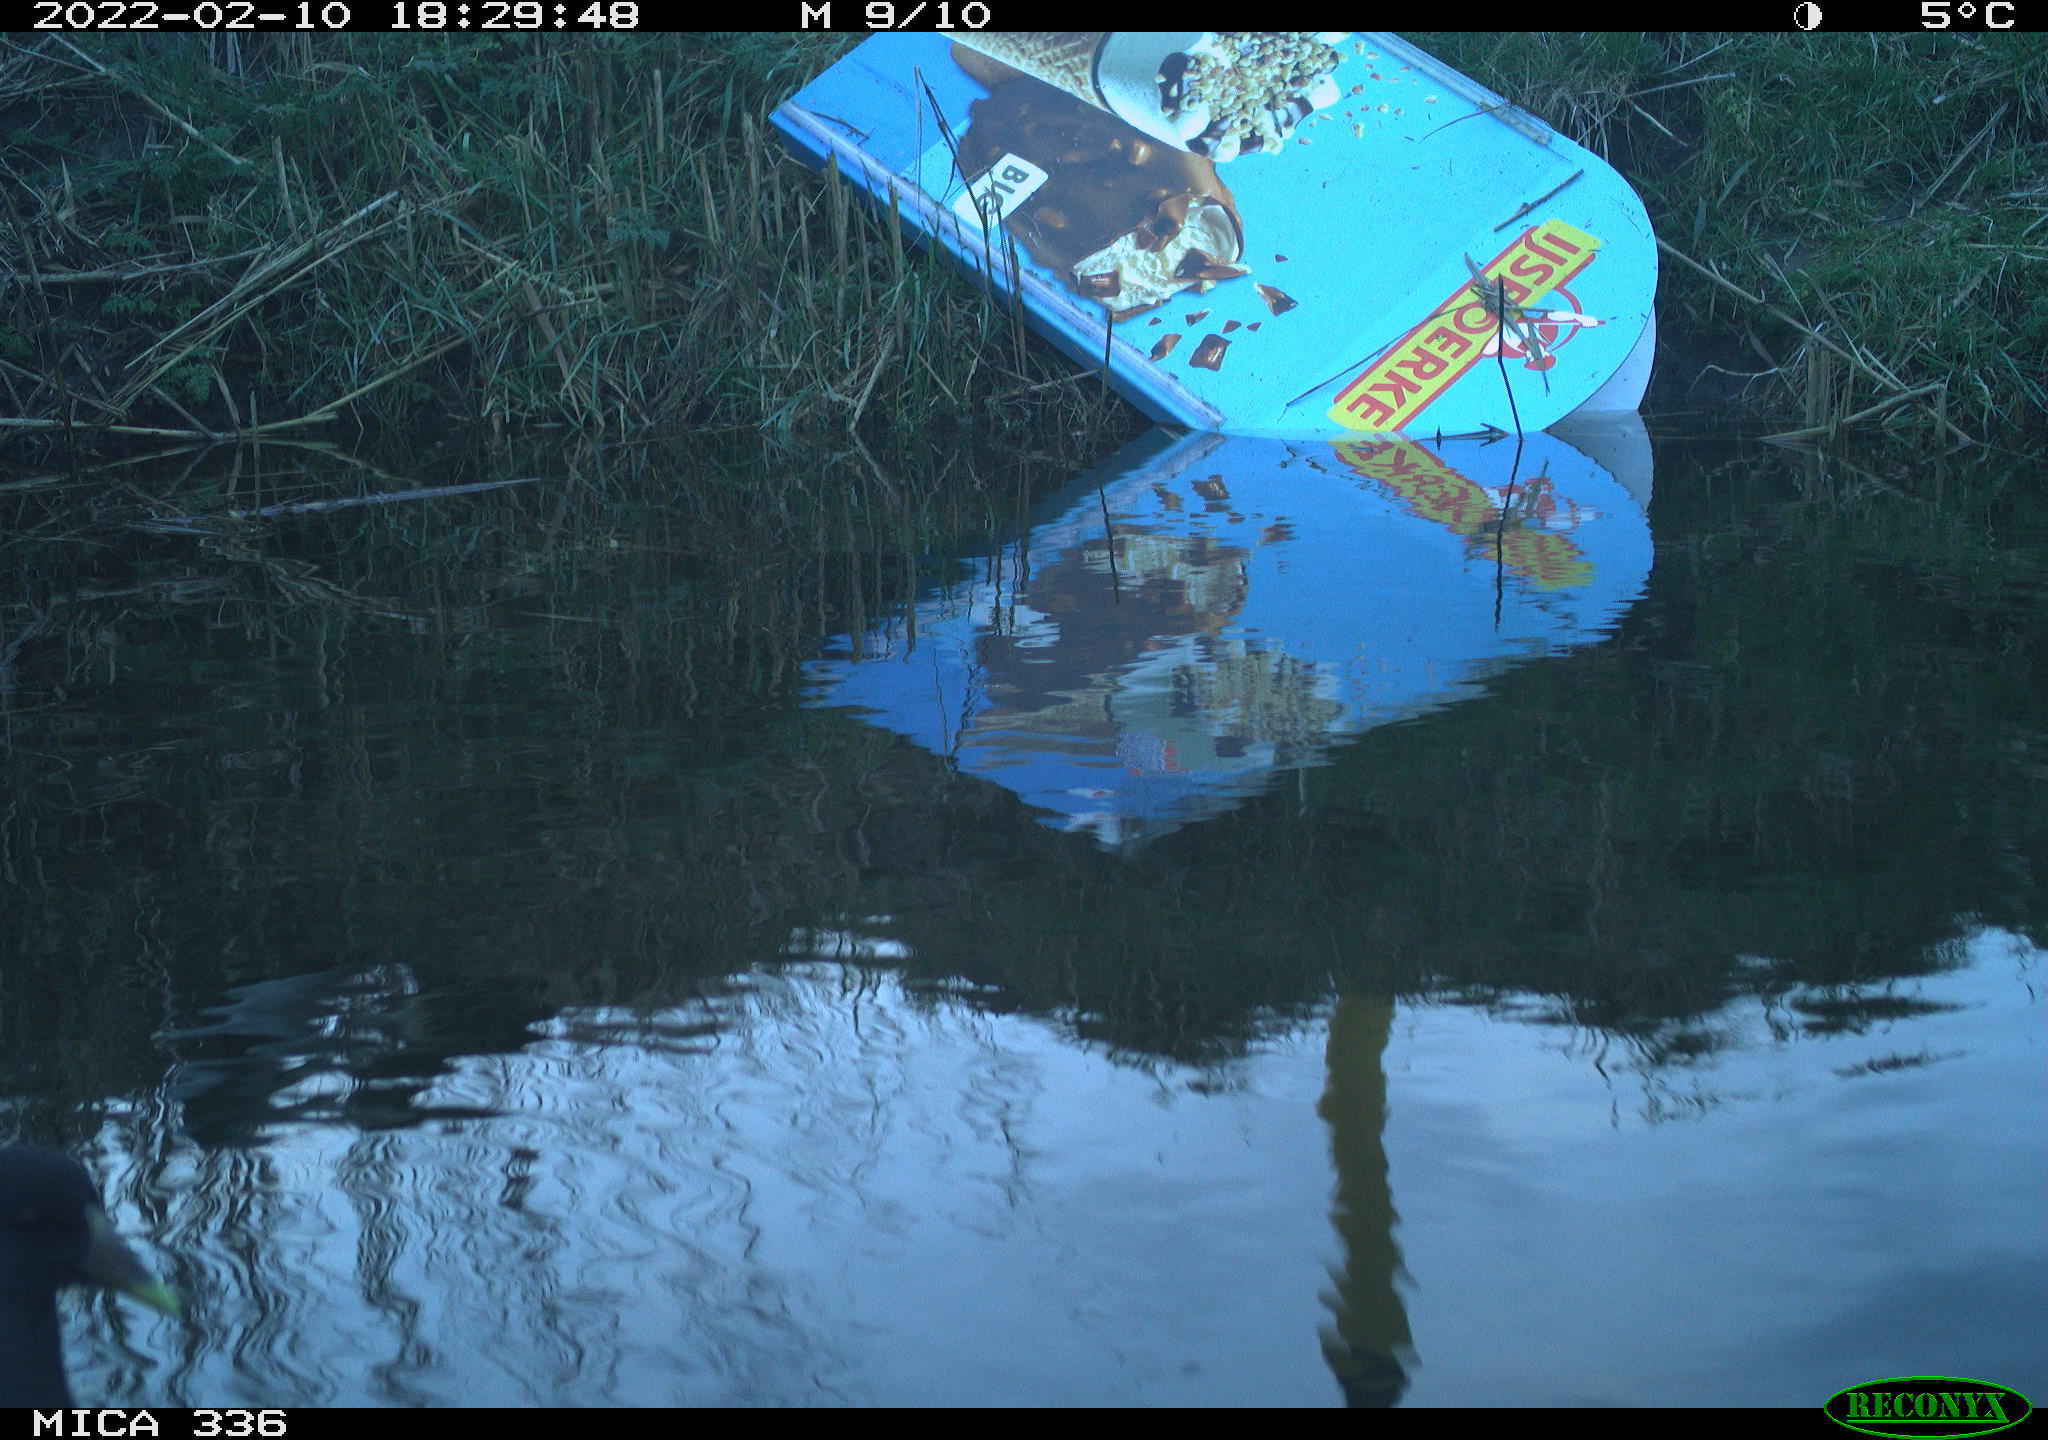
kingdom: Animalia
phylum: Chordata
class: Aves
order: Gruiformes
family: Rallidae
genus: Gallinula
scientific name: Gallinula chloropus
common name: Common moorhen
